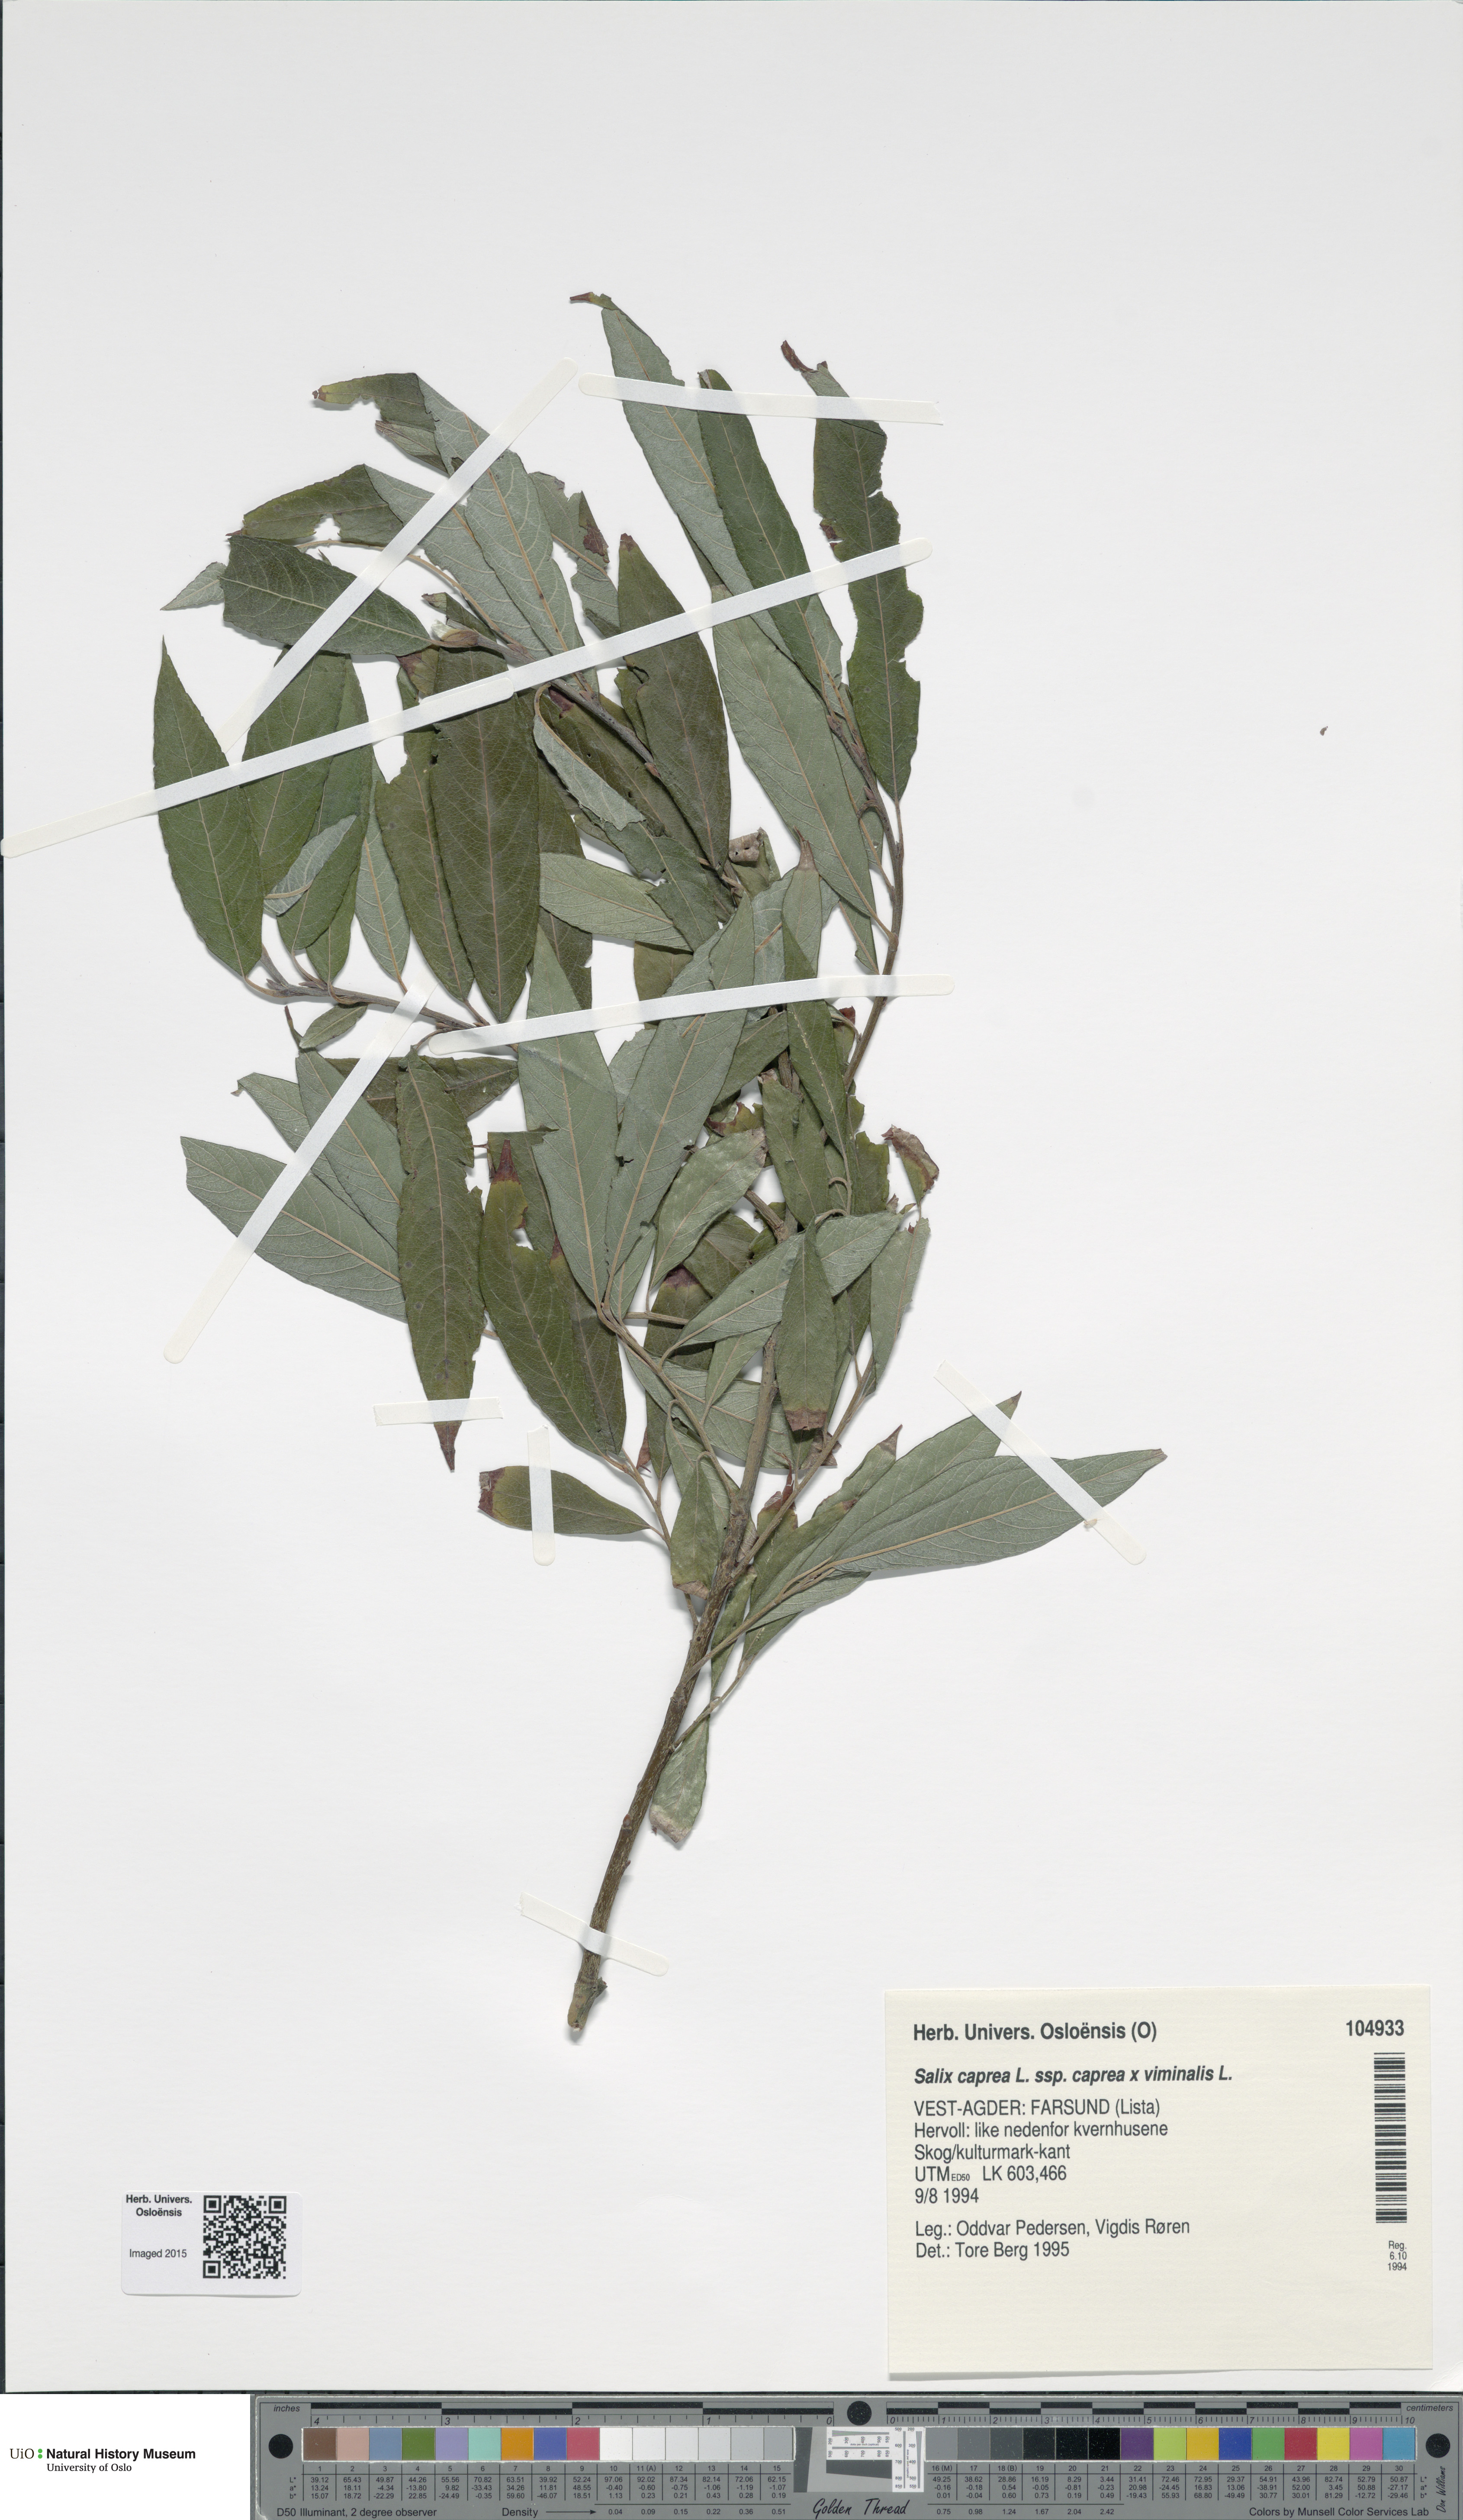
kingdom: Plantae
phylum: Tracheophyta
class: Magnoliopsida
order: Malpighiales
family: Salicaceae
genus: Salix
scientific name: Salix
